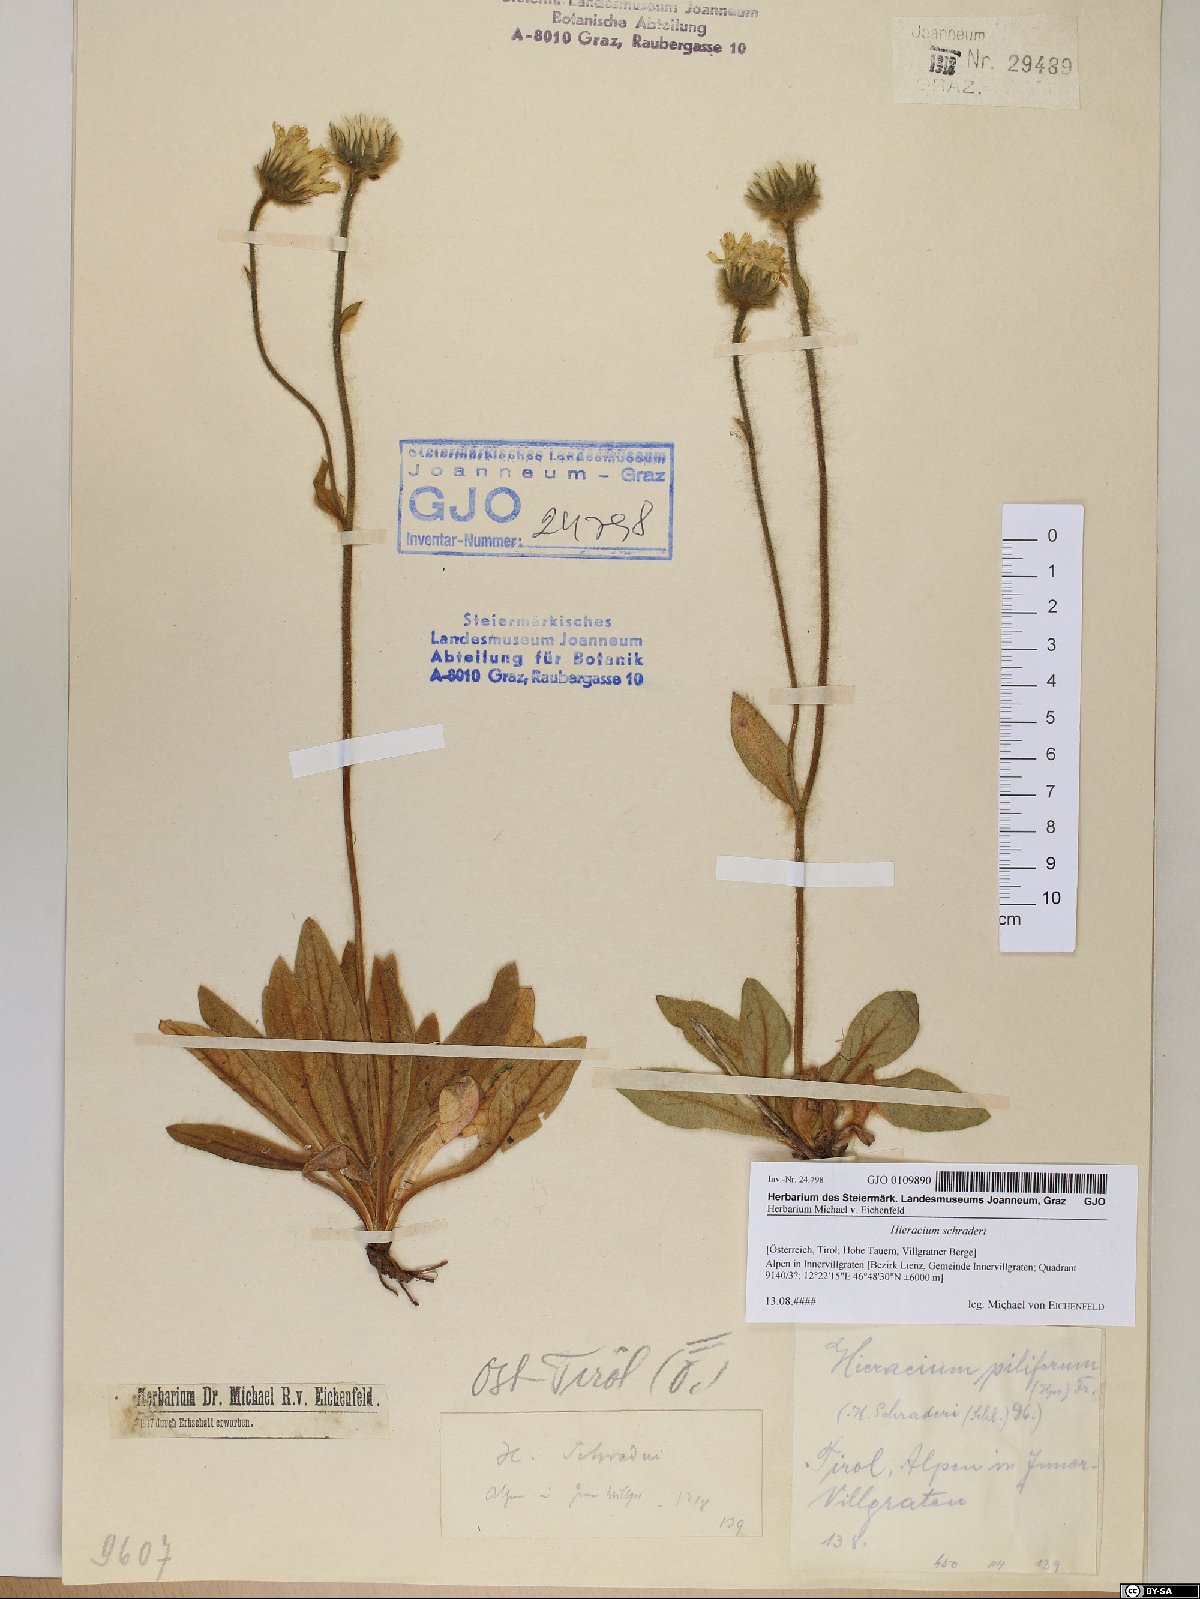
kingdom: Plantae
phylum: Tracheophyta
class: Magnoliopsida
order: Asterales
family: Asteraceae
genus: Hieracium
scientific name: Hieracium schraderi
